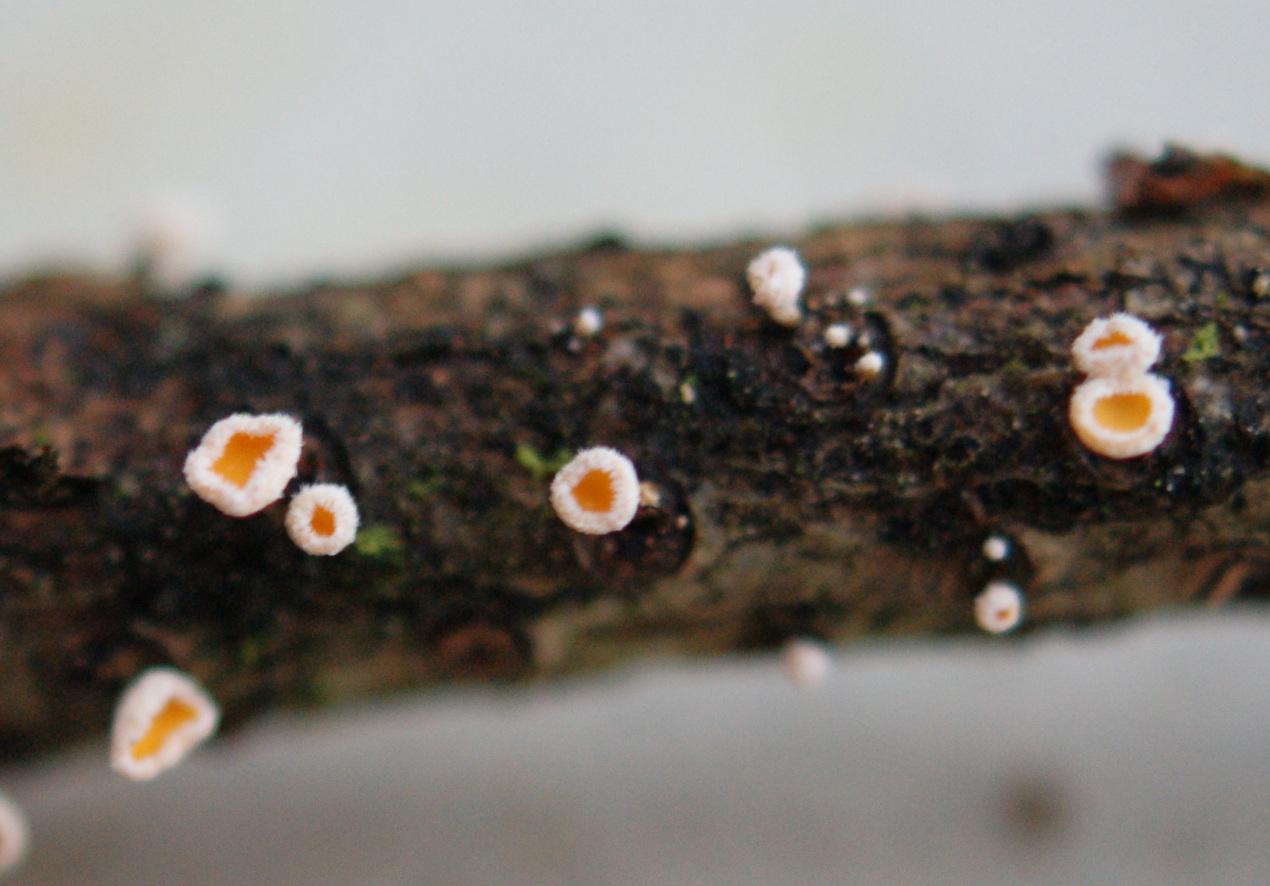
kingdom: Fungi
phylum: Ascomycota
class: Leotiomycetes
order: Helotiales
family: Lachnaceae
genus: Lachnellula
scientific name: Lachnellula calyciformis
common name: ædelgran-frynseskive
